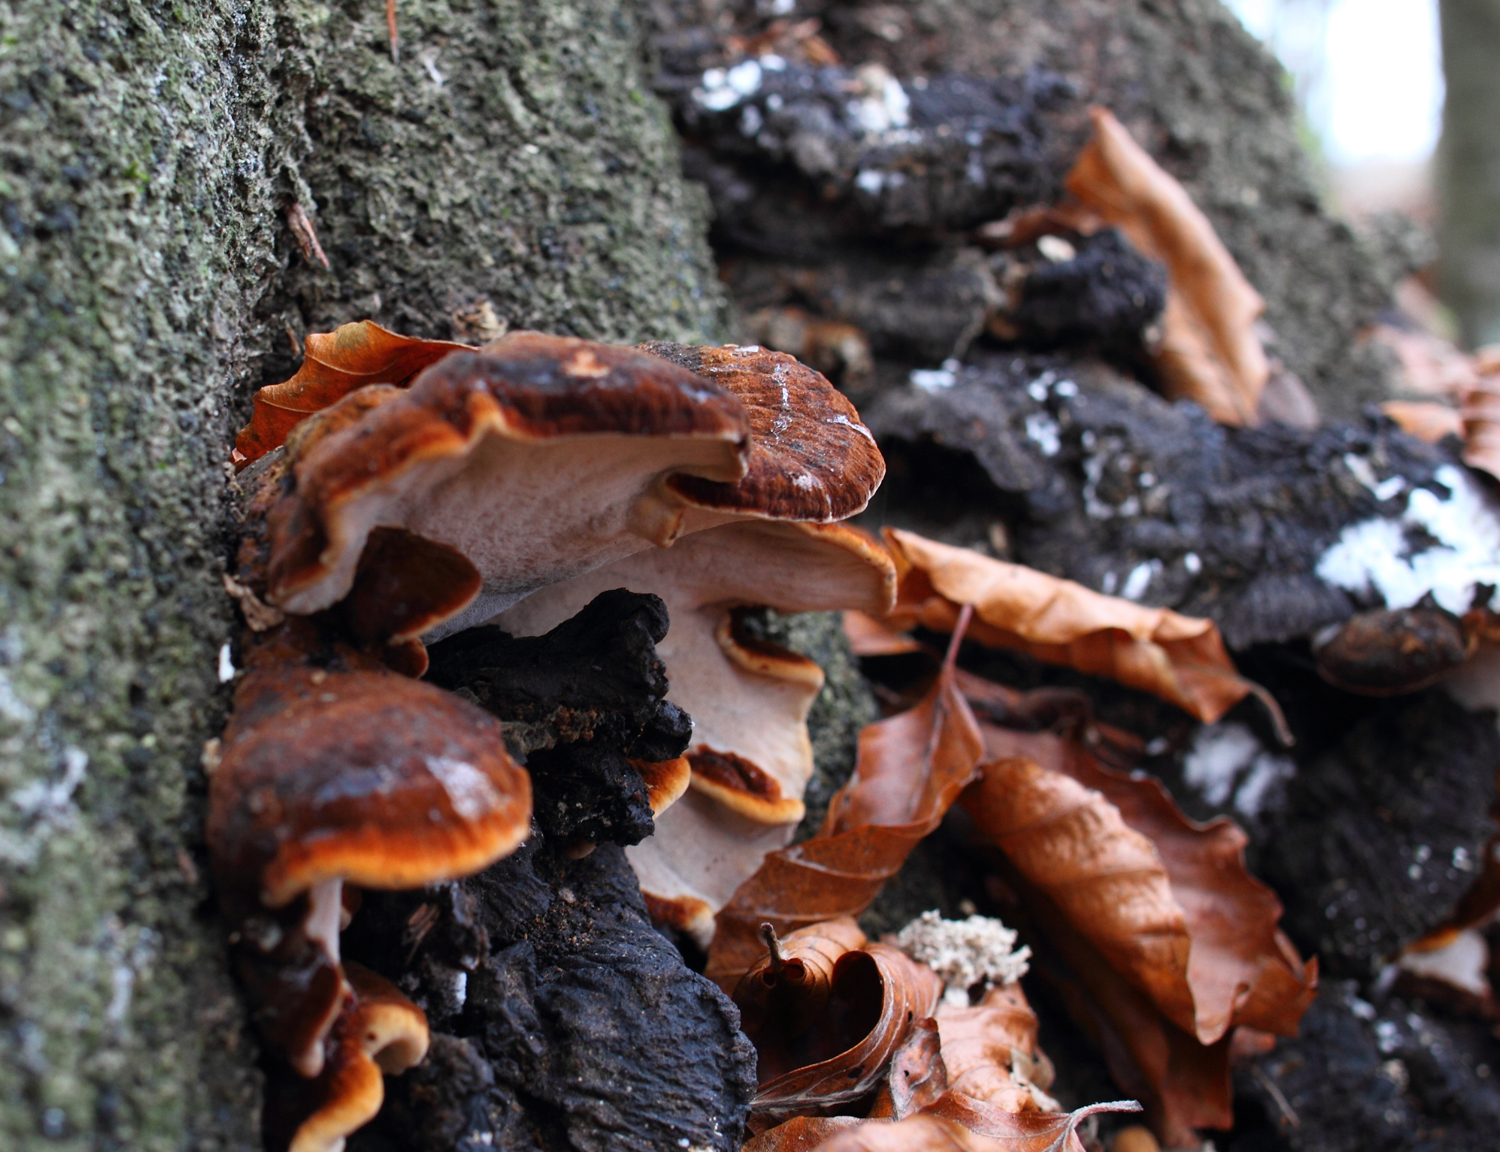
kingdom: Fungi
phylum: Basidiomycota
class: Agaricomycetes
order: Polyporales
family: Ischnodermataceae
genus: Ischnoderma
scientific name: Ischnoderma resinosum
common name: løv-tjæreporesvamp
